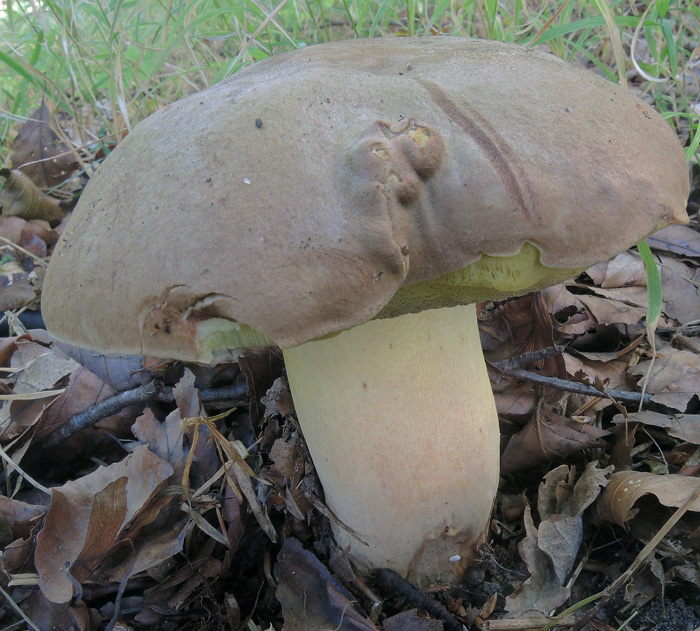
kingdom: Fungi
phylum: Basidiomycota
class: Agaricomycetes
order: Boletales
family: Boletaceae
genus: Butyriboletus
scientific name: Butyriboletus appendiculatus
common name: tenstokket rørhat
